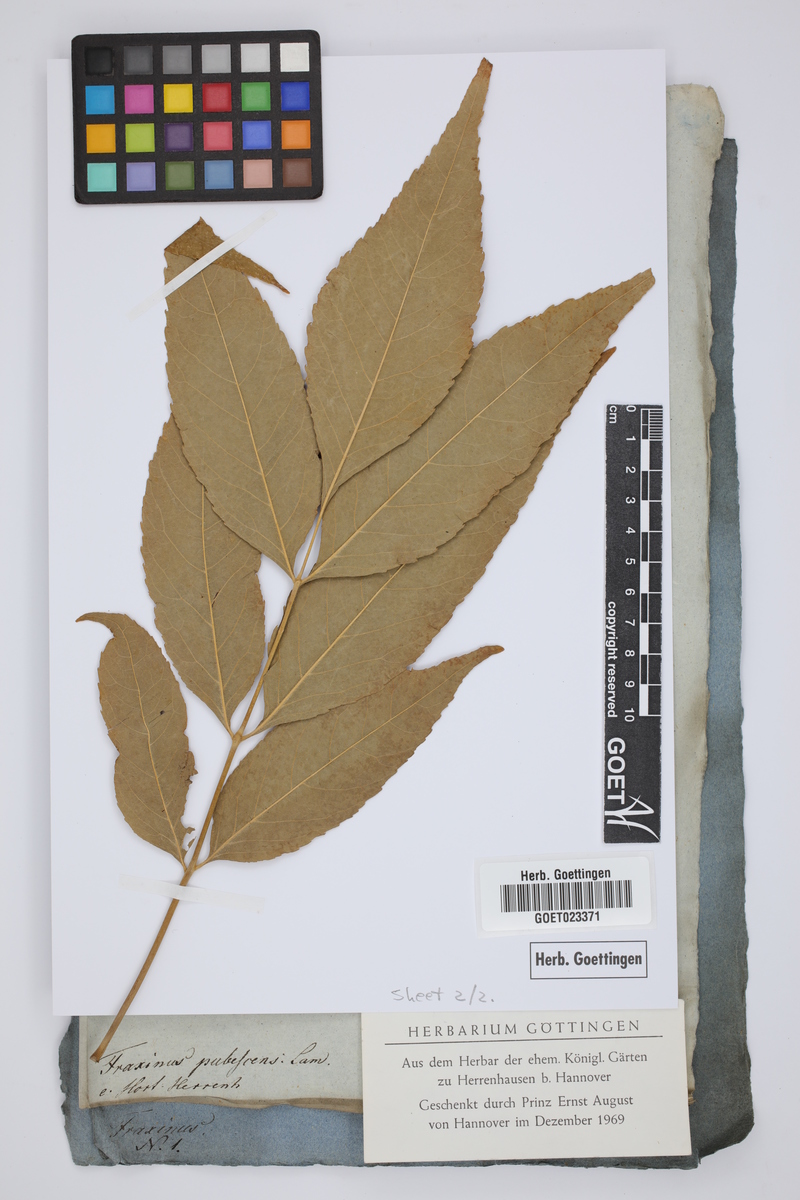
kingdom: Plantae
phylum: Tracheophyta
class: Magnoliopsida
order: Lamiales
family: Oleaceae
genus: Fraxinus
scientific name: Fraxinus americana
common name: White ash
